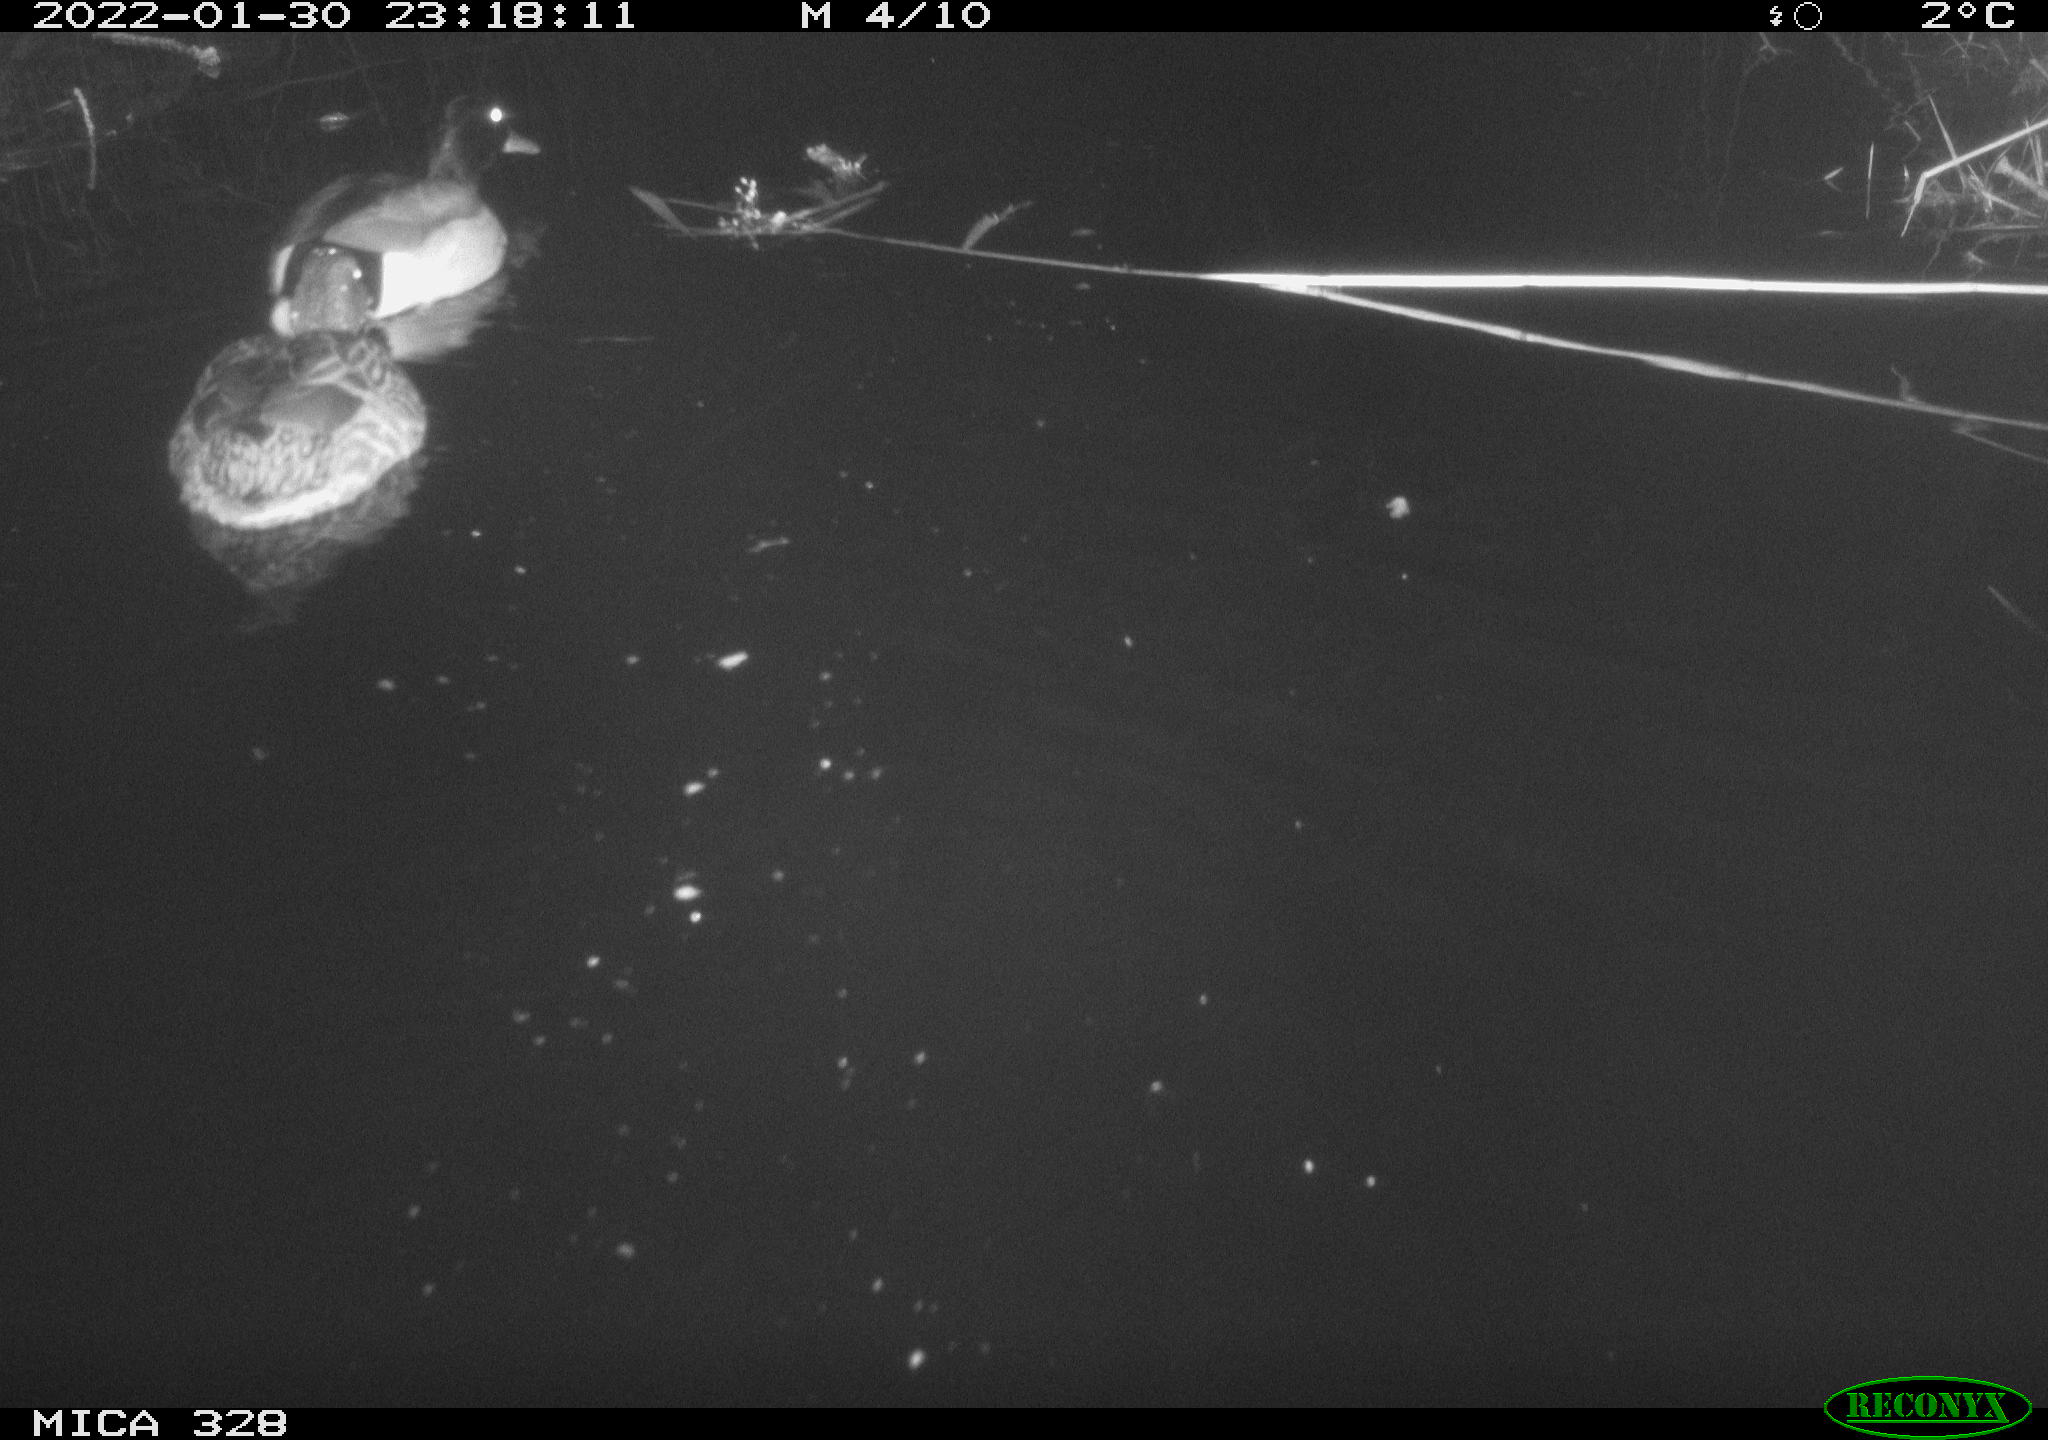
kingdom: Animalia
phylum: Chordata
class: Aves
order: Anseriformes
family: Anatidae
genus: Anas
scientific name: Anas platyrhynchos
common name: Mallard
